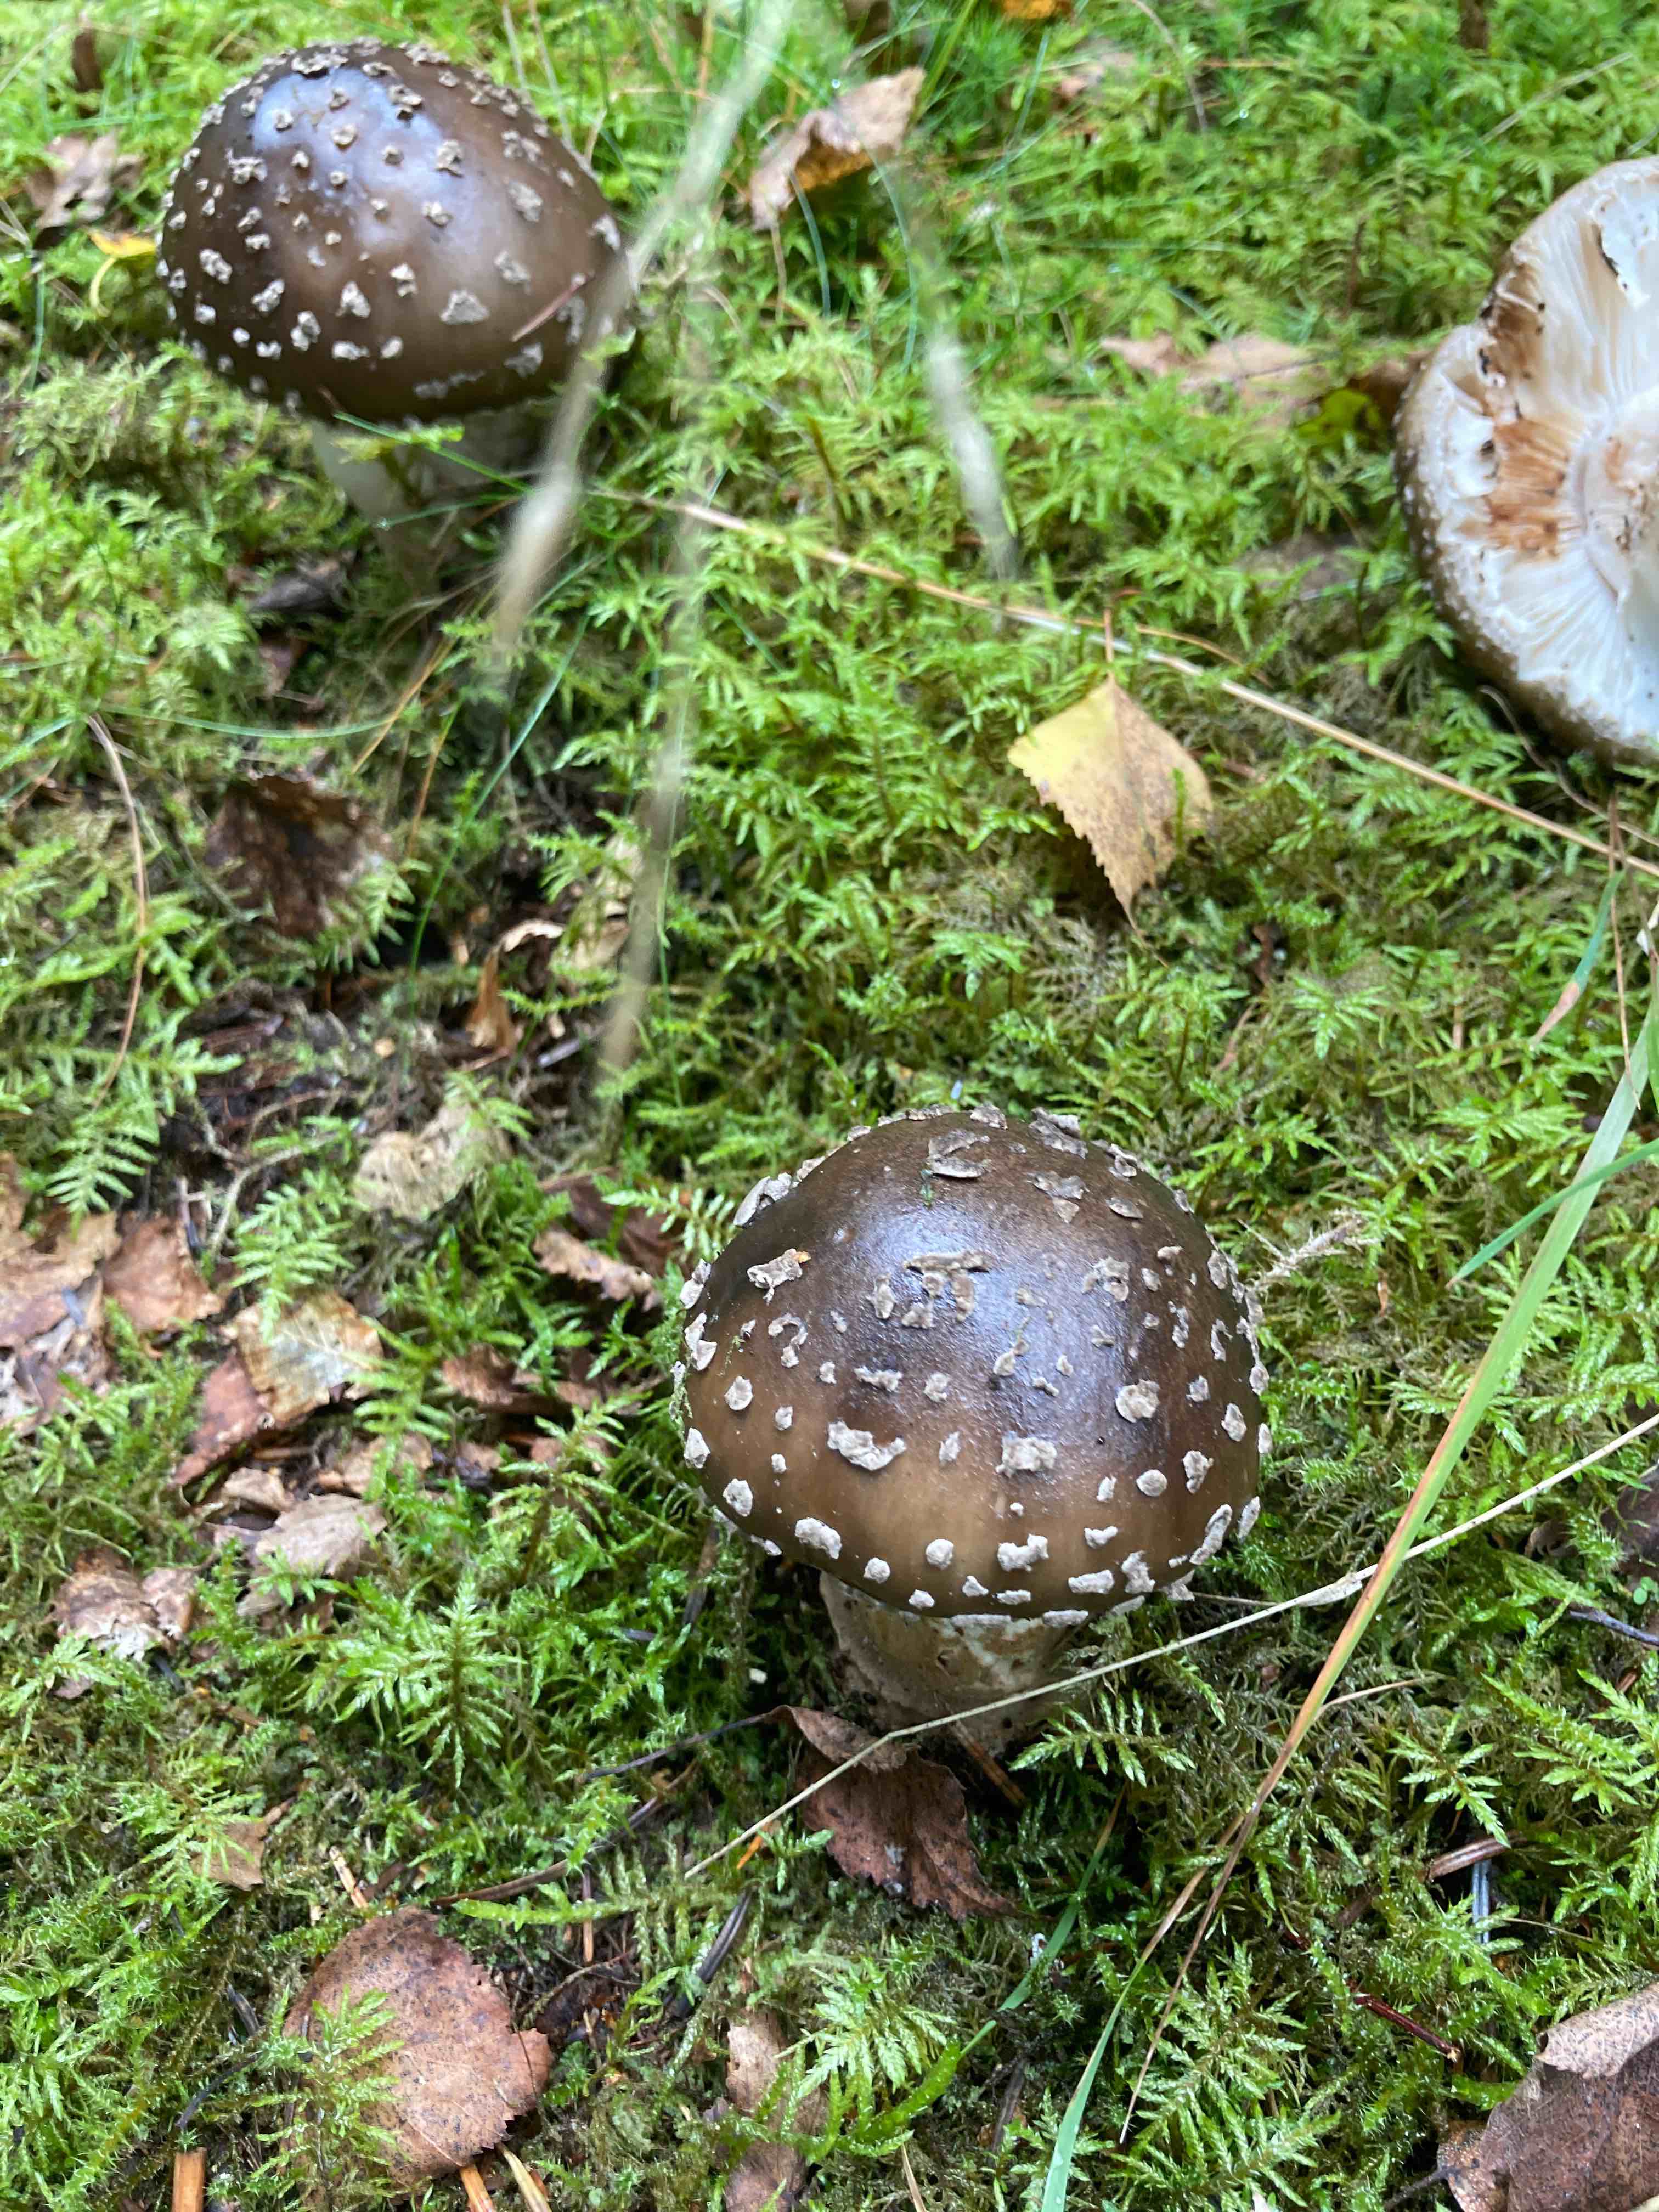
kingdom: Fungi
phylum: Basidiomycota
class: Agaricomycetes
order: Agaricales
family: Amanitaceae
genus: Amanita
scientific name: Amanita
